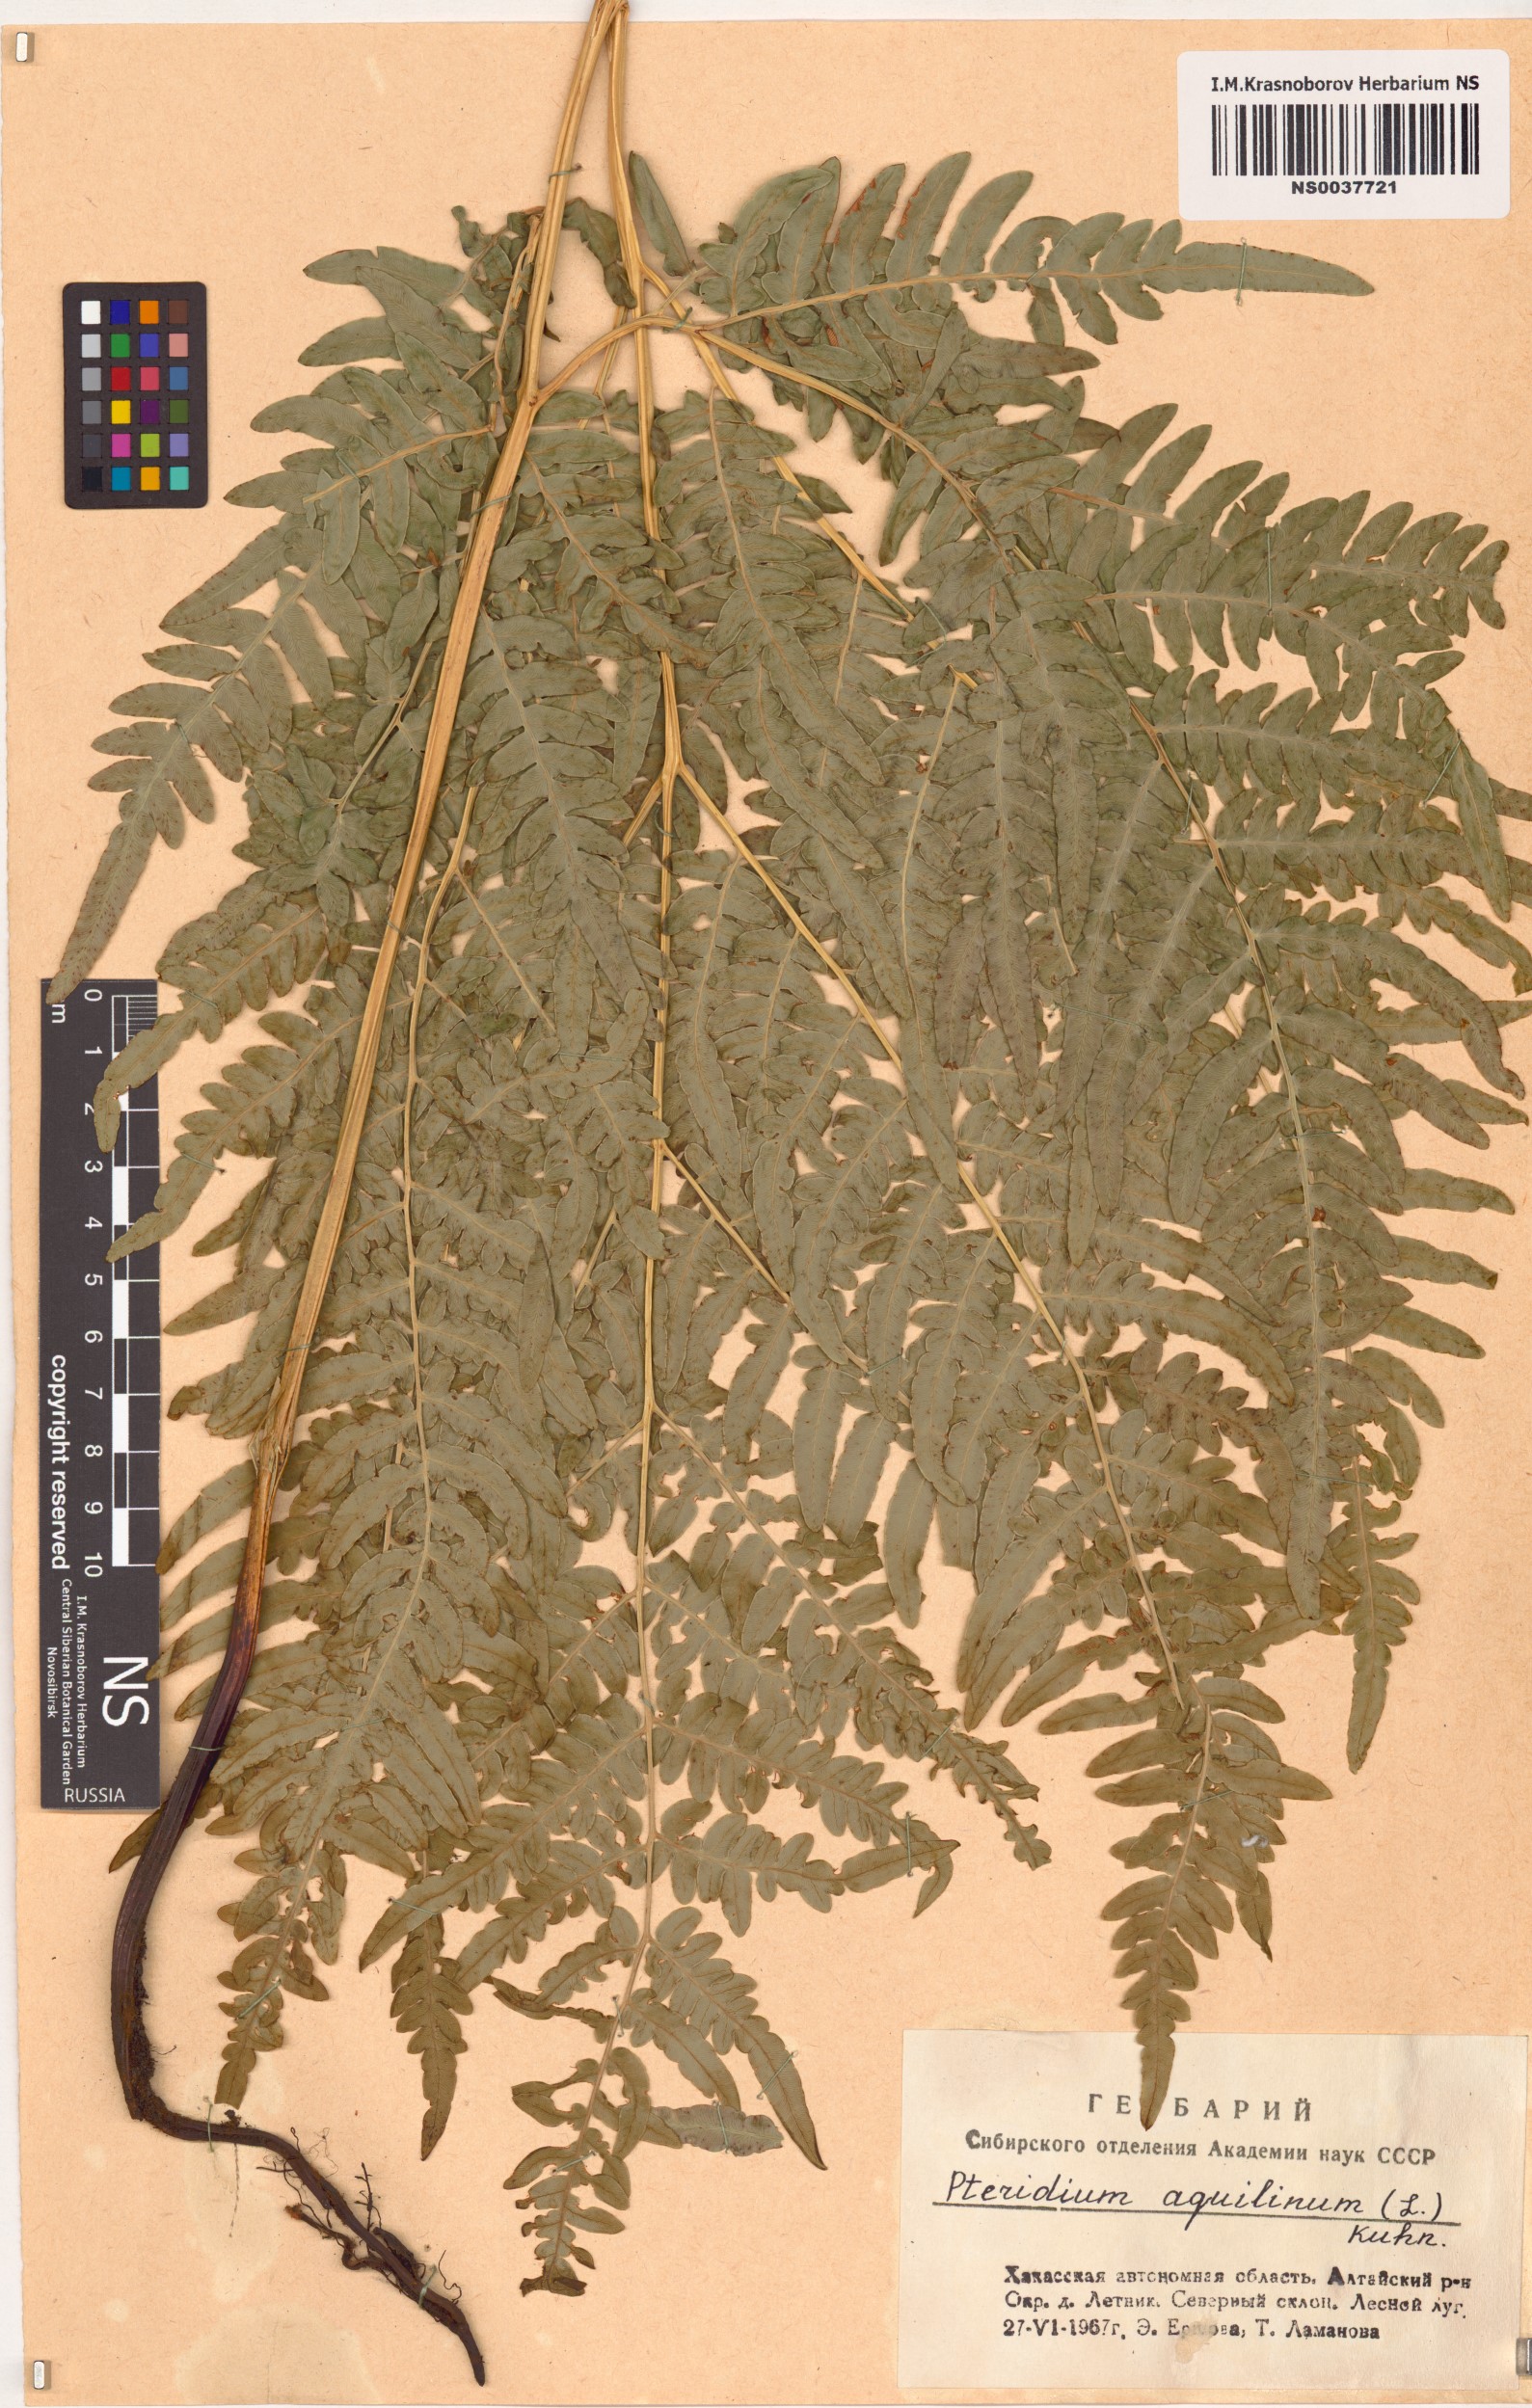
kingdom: Plantae
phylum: Tracheophyta
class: Polypodiopsida
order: Polypodiales
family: Dennstaedtiaceae
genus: Pteridium
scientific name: Pteridium aquilinum
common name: Bracken
